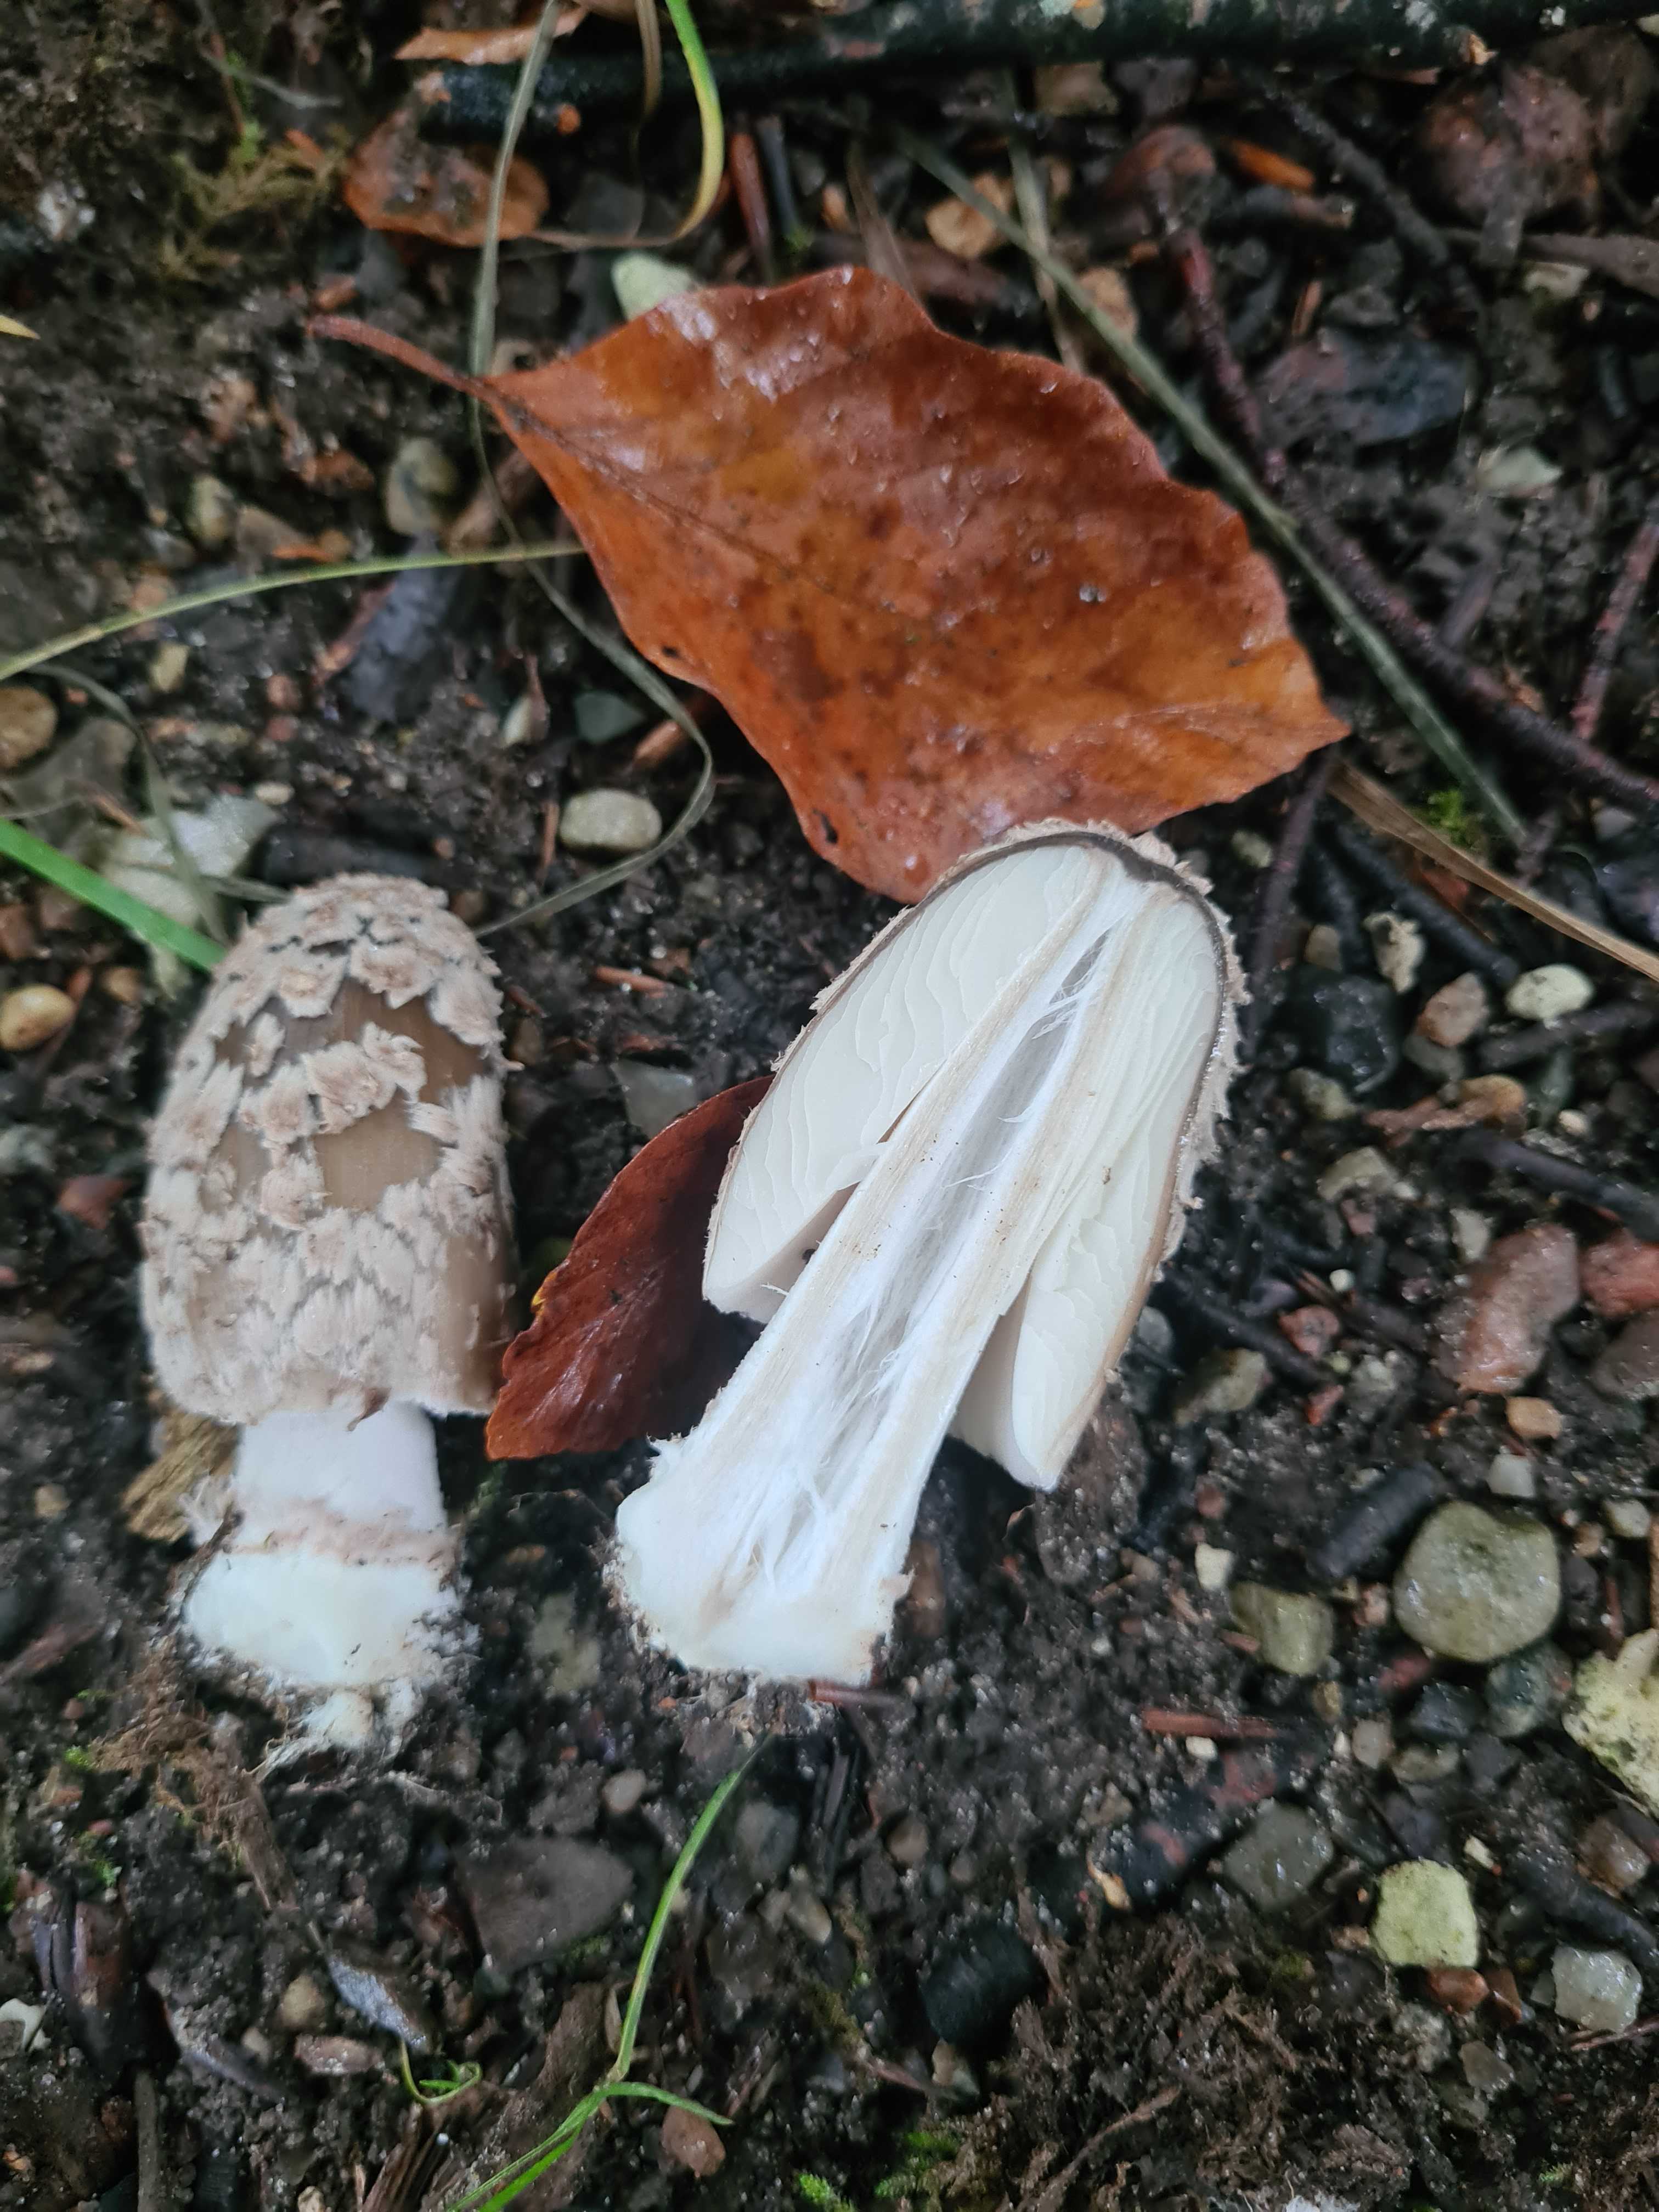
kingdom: Fungi
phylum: Basidiomycota
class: Agaricomycetes
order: Agaricales
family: Psathyrellaceae
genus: Coprinopsis
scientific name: Coprinopsis picacea
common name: skade-blækhat
